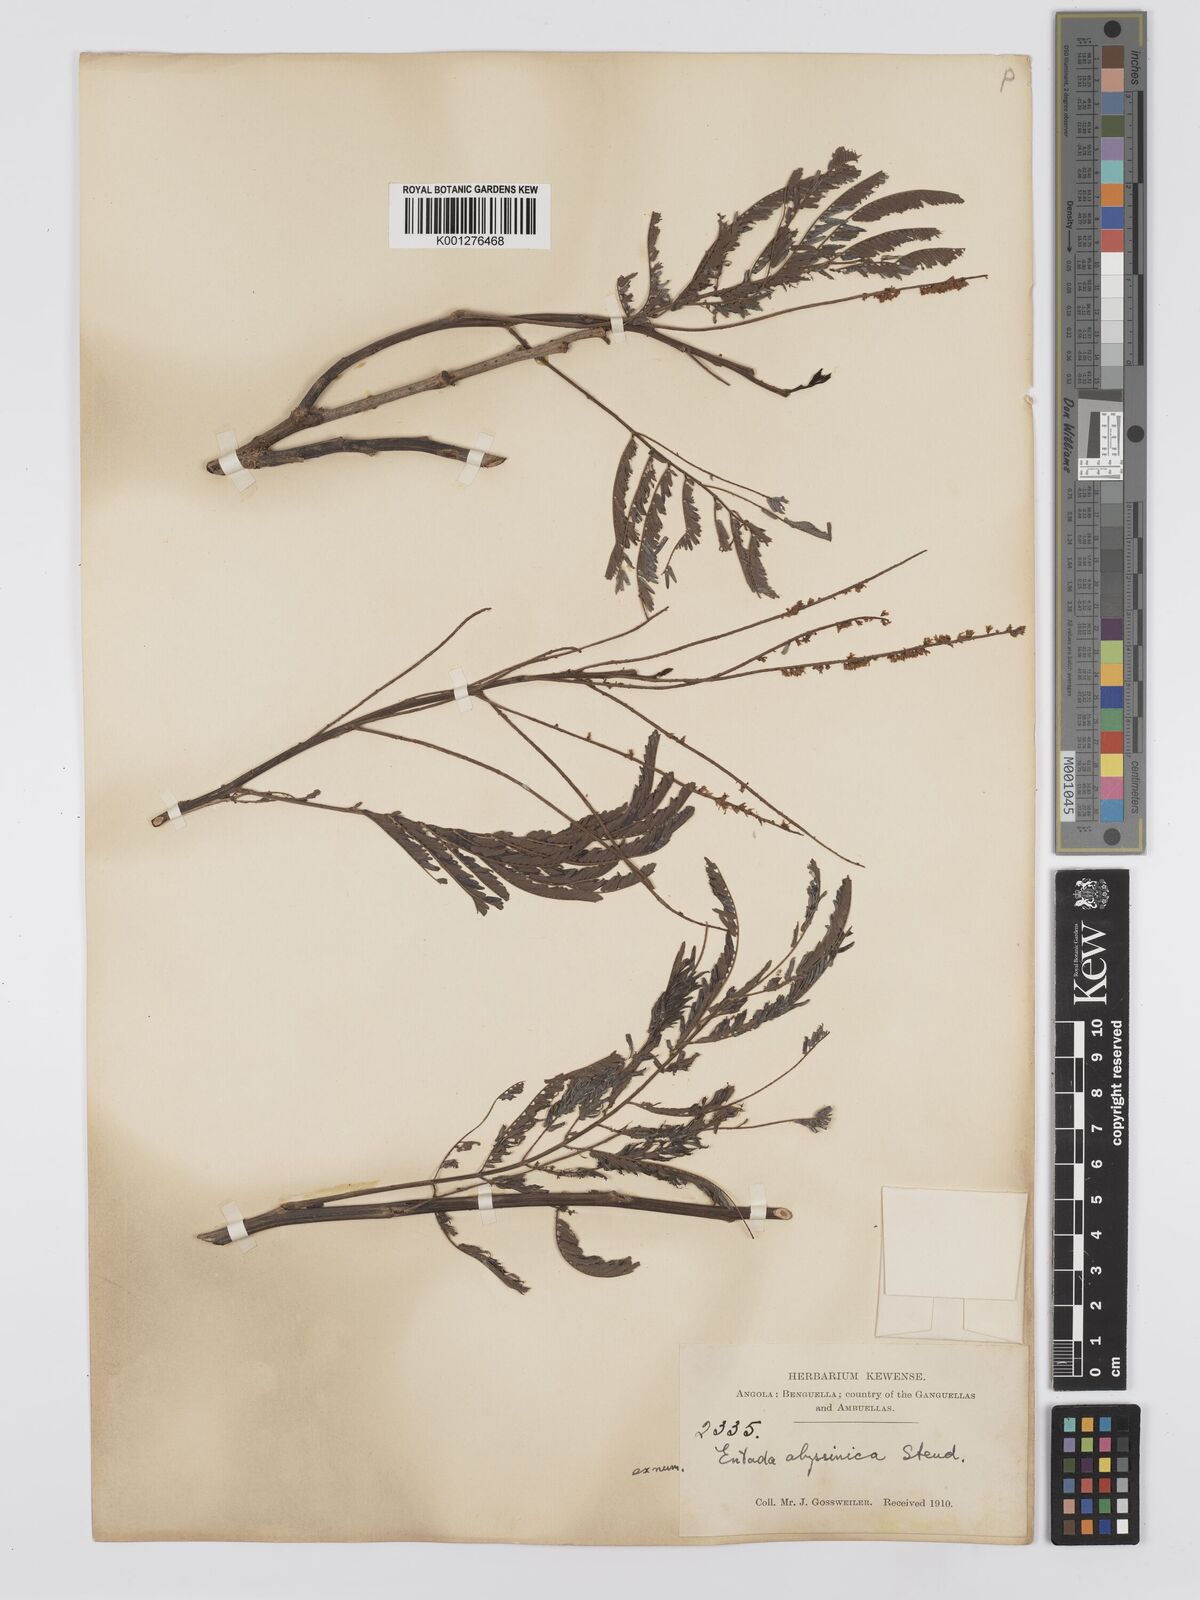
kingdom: Plantae
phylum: Tracheophyta
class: Magnoliopsida
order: Fabales
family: Fabaceae
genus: Entada
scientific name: Entada abyssinica
